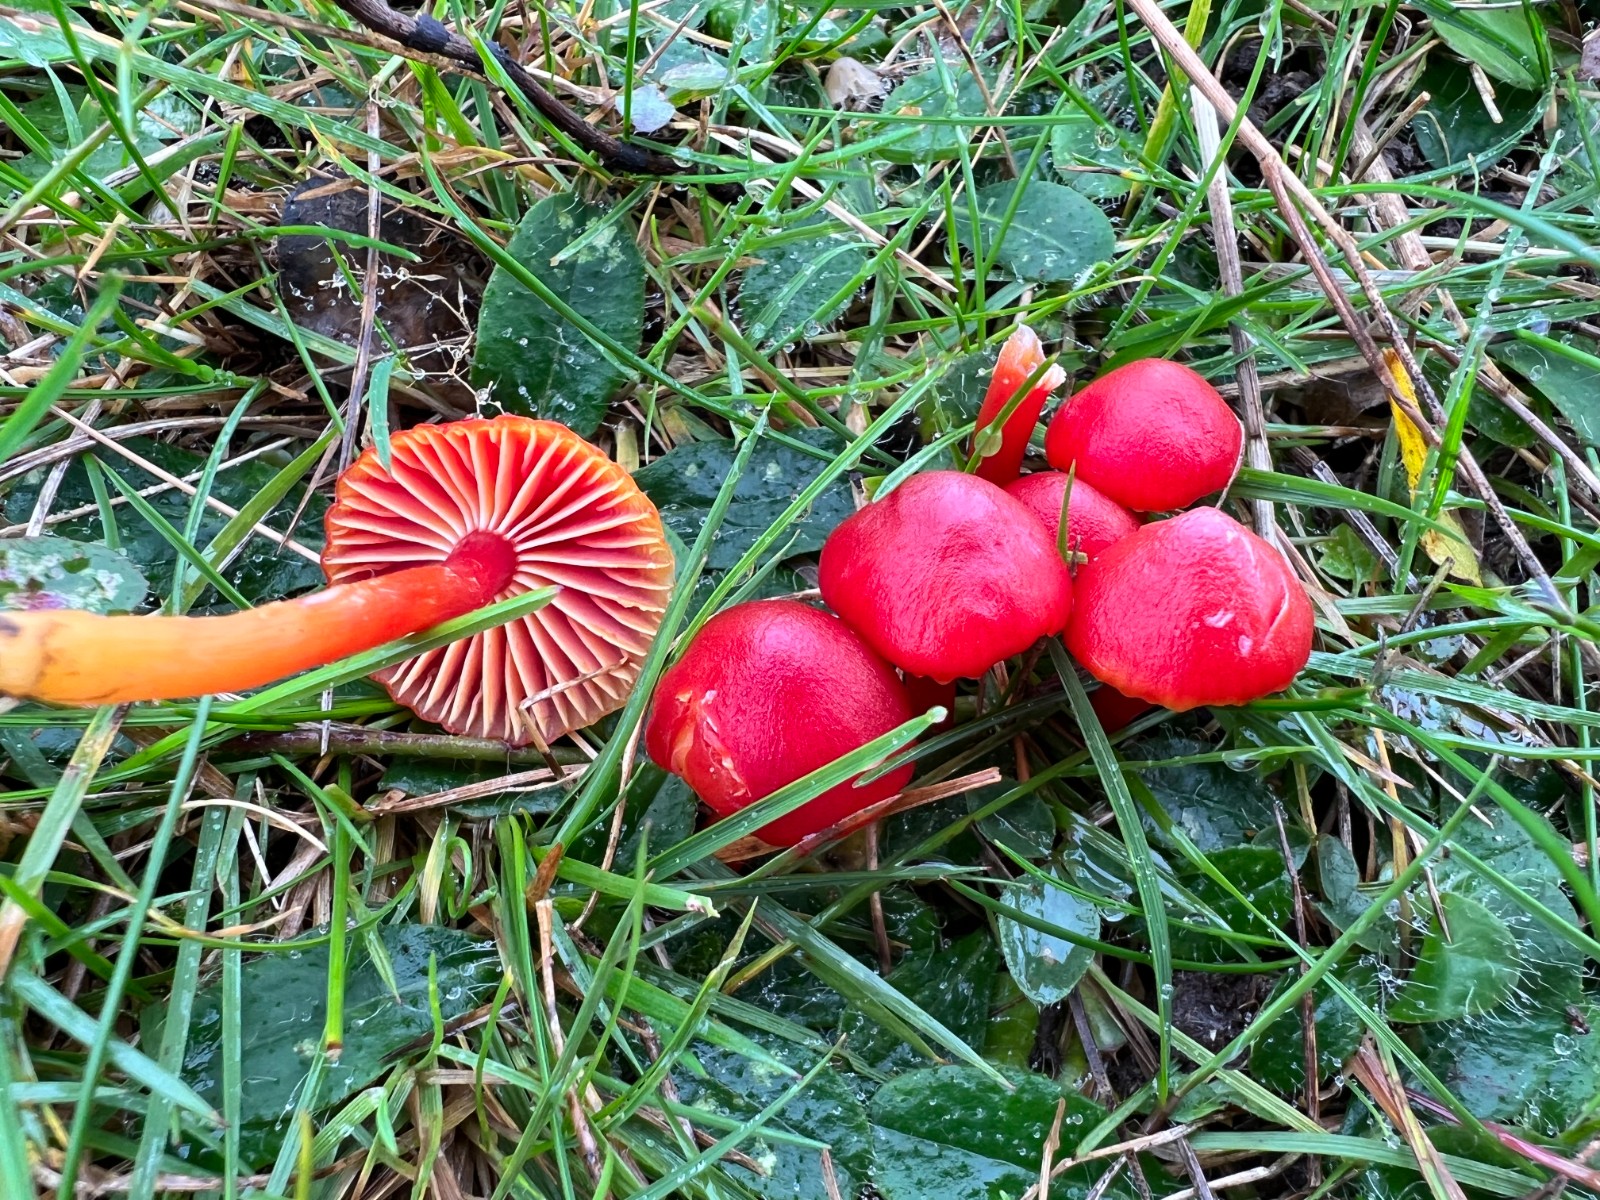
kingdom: Fungi
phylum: Basidiomycota
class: Agaricomycetes
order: Agaricales
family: Hygrophoraceae
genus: Hygrocybe
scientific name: Hygrocybe coccinea
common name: cinnober-vokshat
